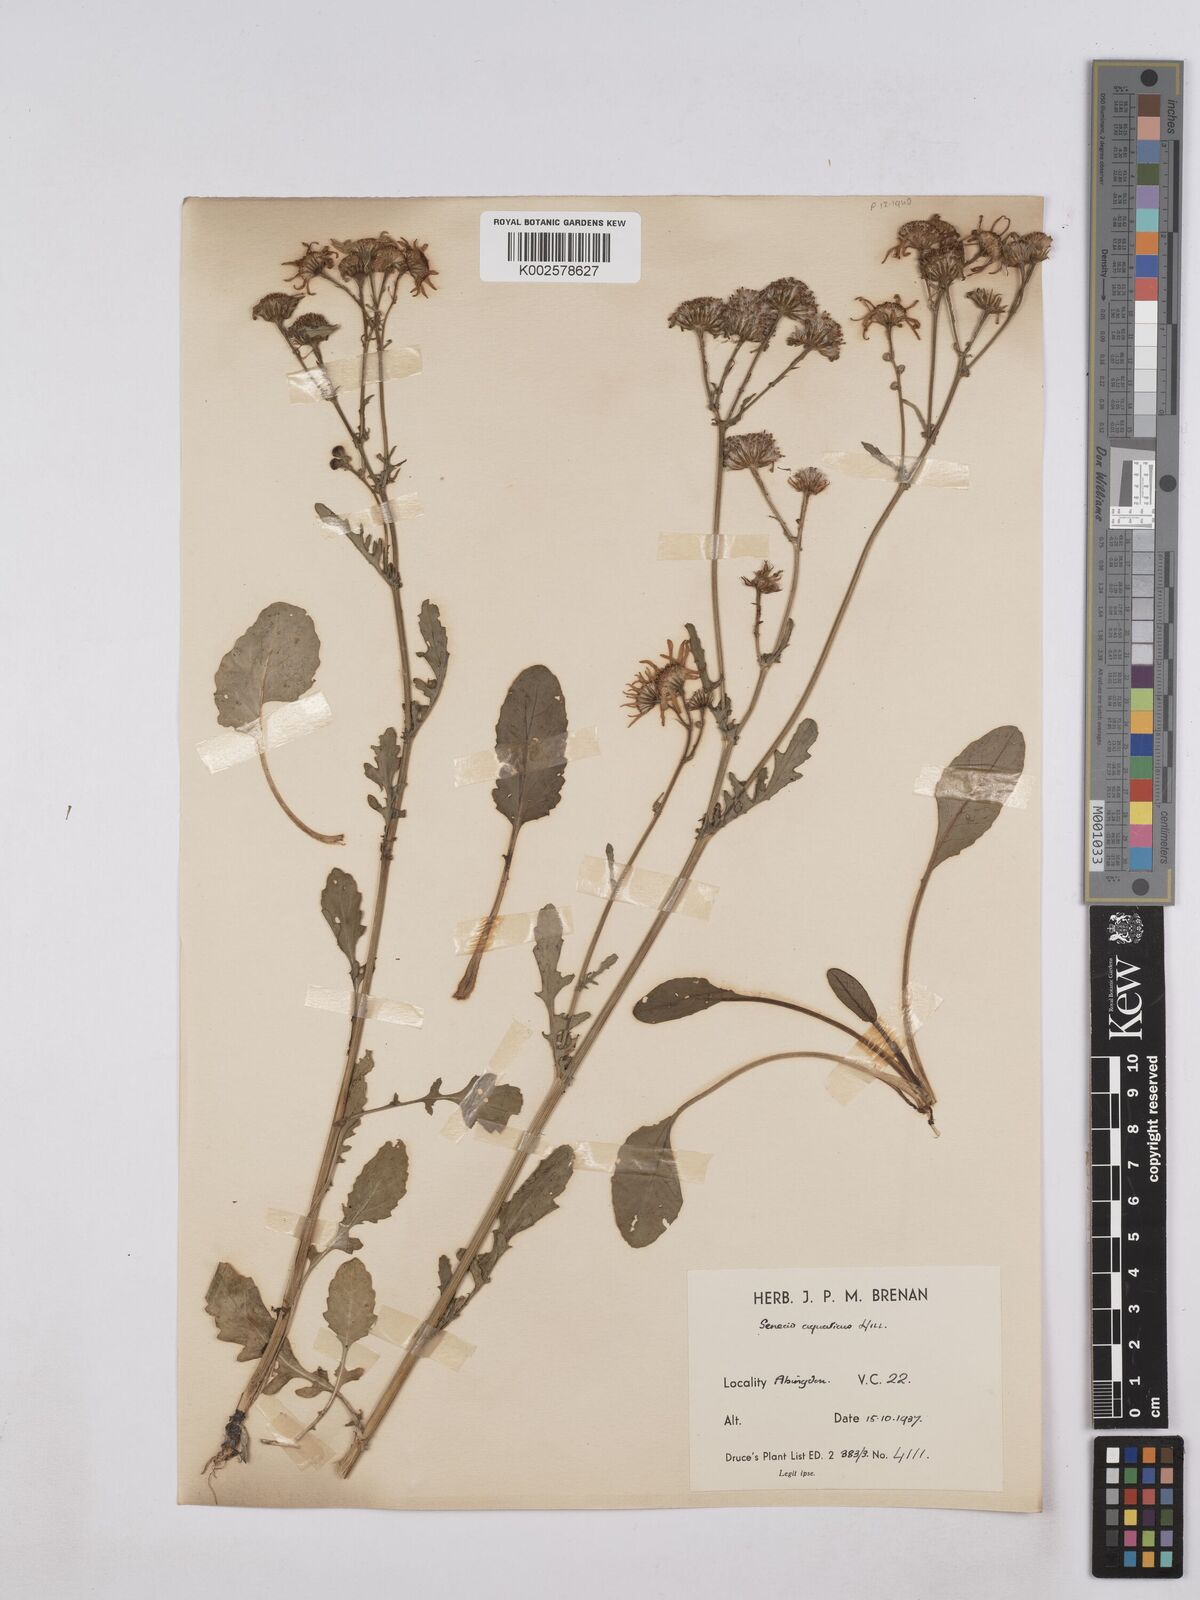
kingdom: Plantae
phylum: Tracheophyta
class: Magnoliopsida
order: Asterales
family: Asteraceae
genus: Jacobaea
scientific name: Jacobaea aquatica
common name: Water ragwort
